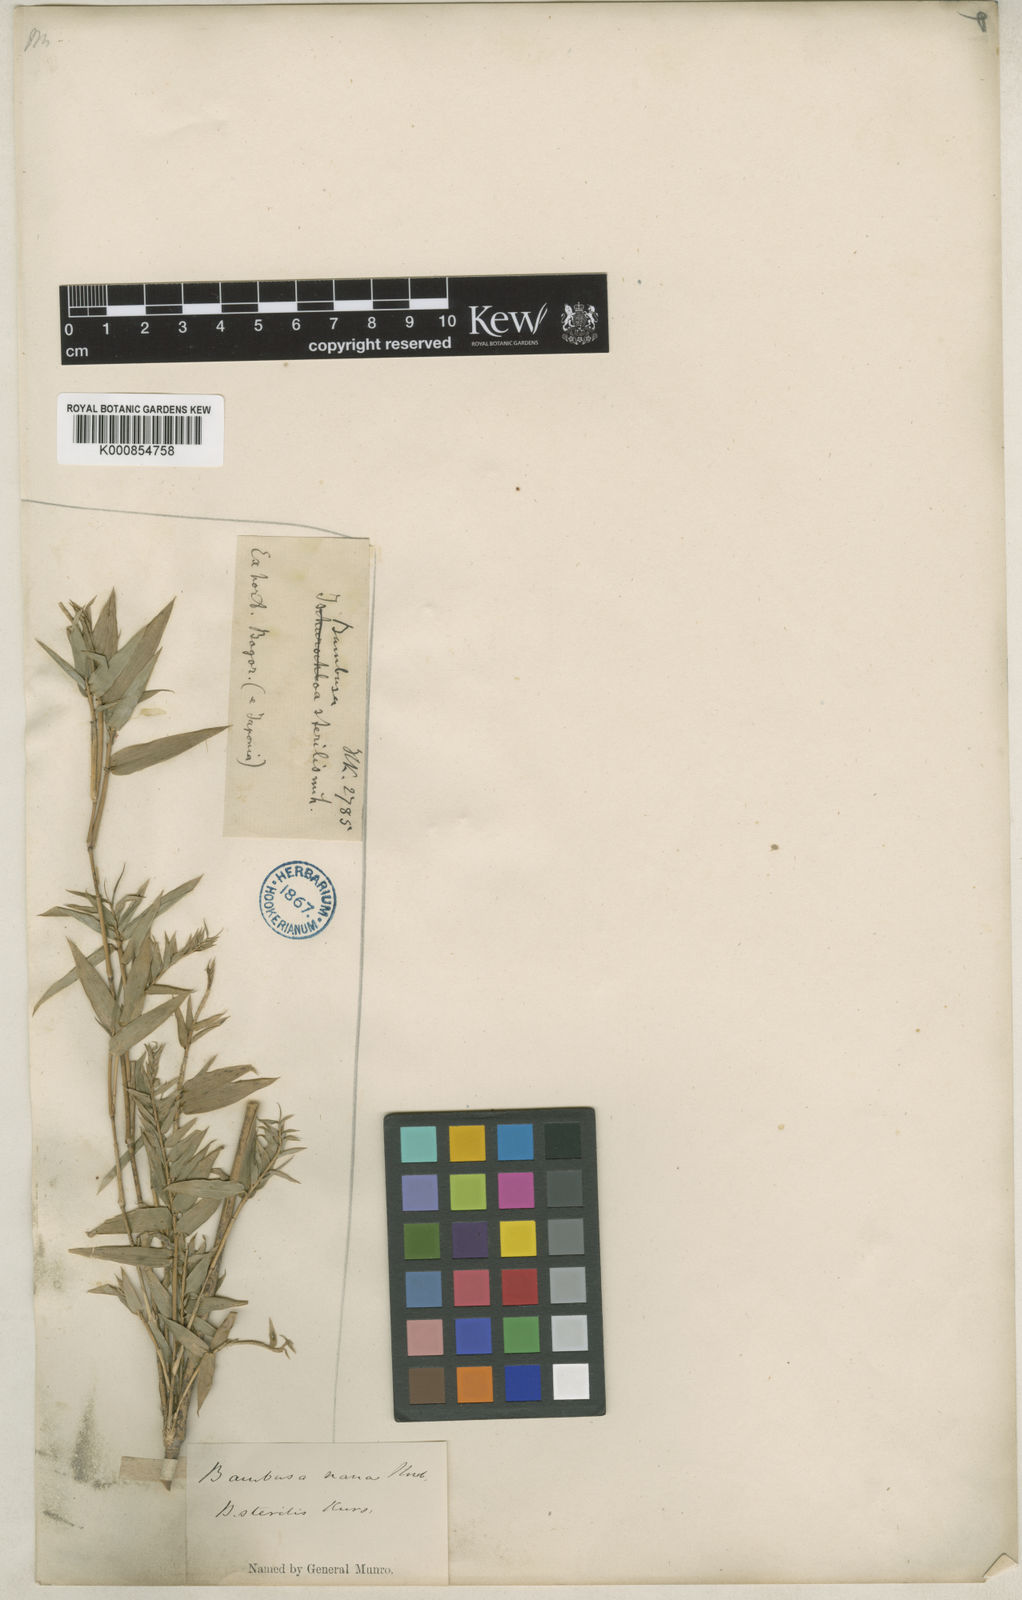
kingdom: Plantae
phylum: Tracheophyta
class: Liliopsida
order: Poales
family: Poaceae
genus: Bambusa
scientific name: Bambusa multiplex
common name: Hedge bamboo
